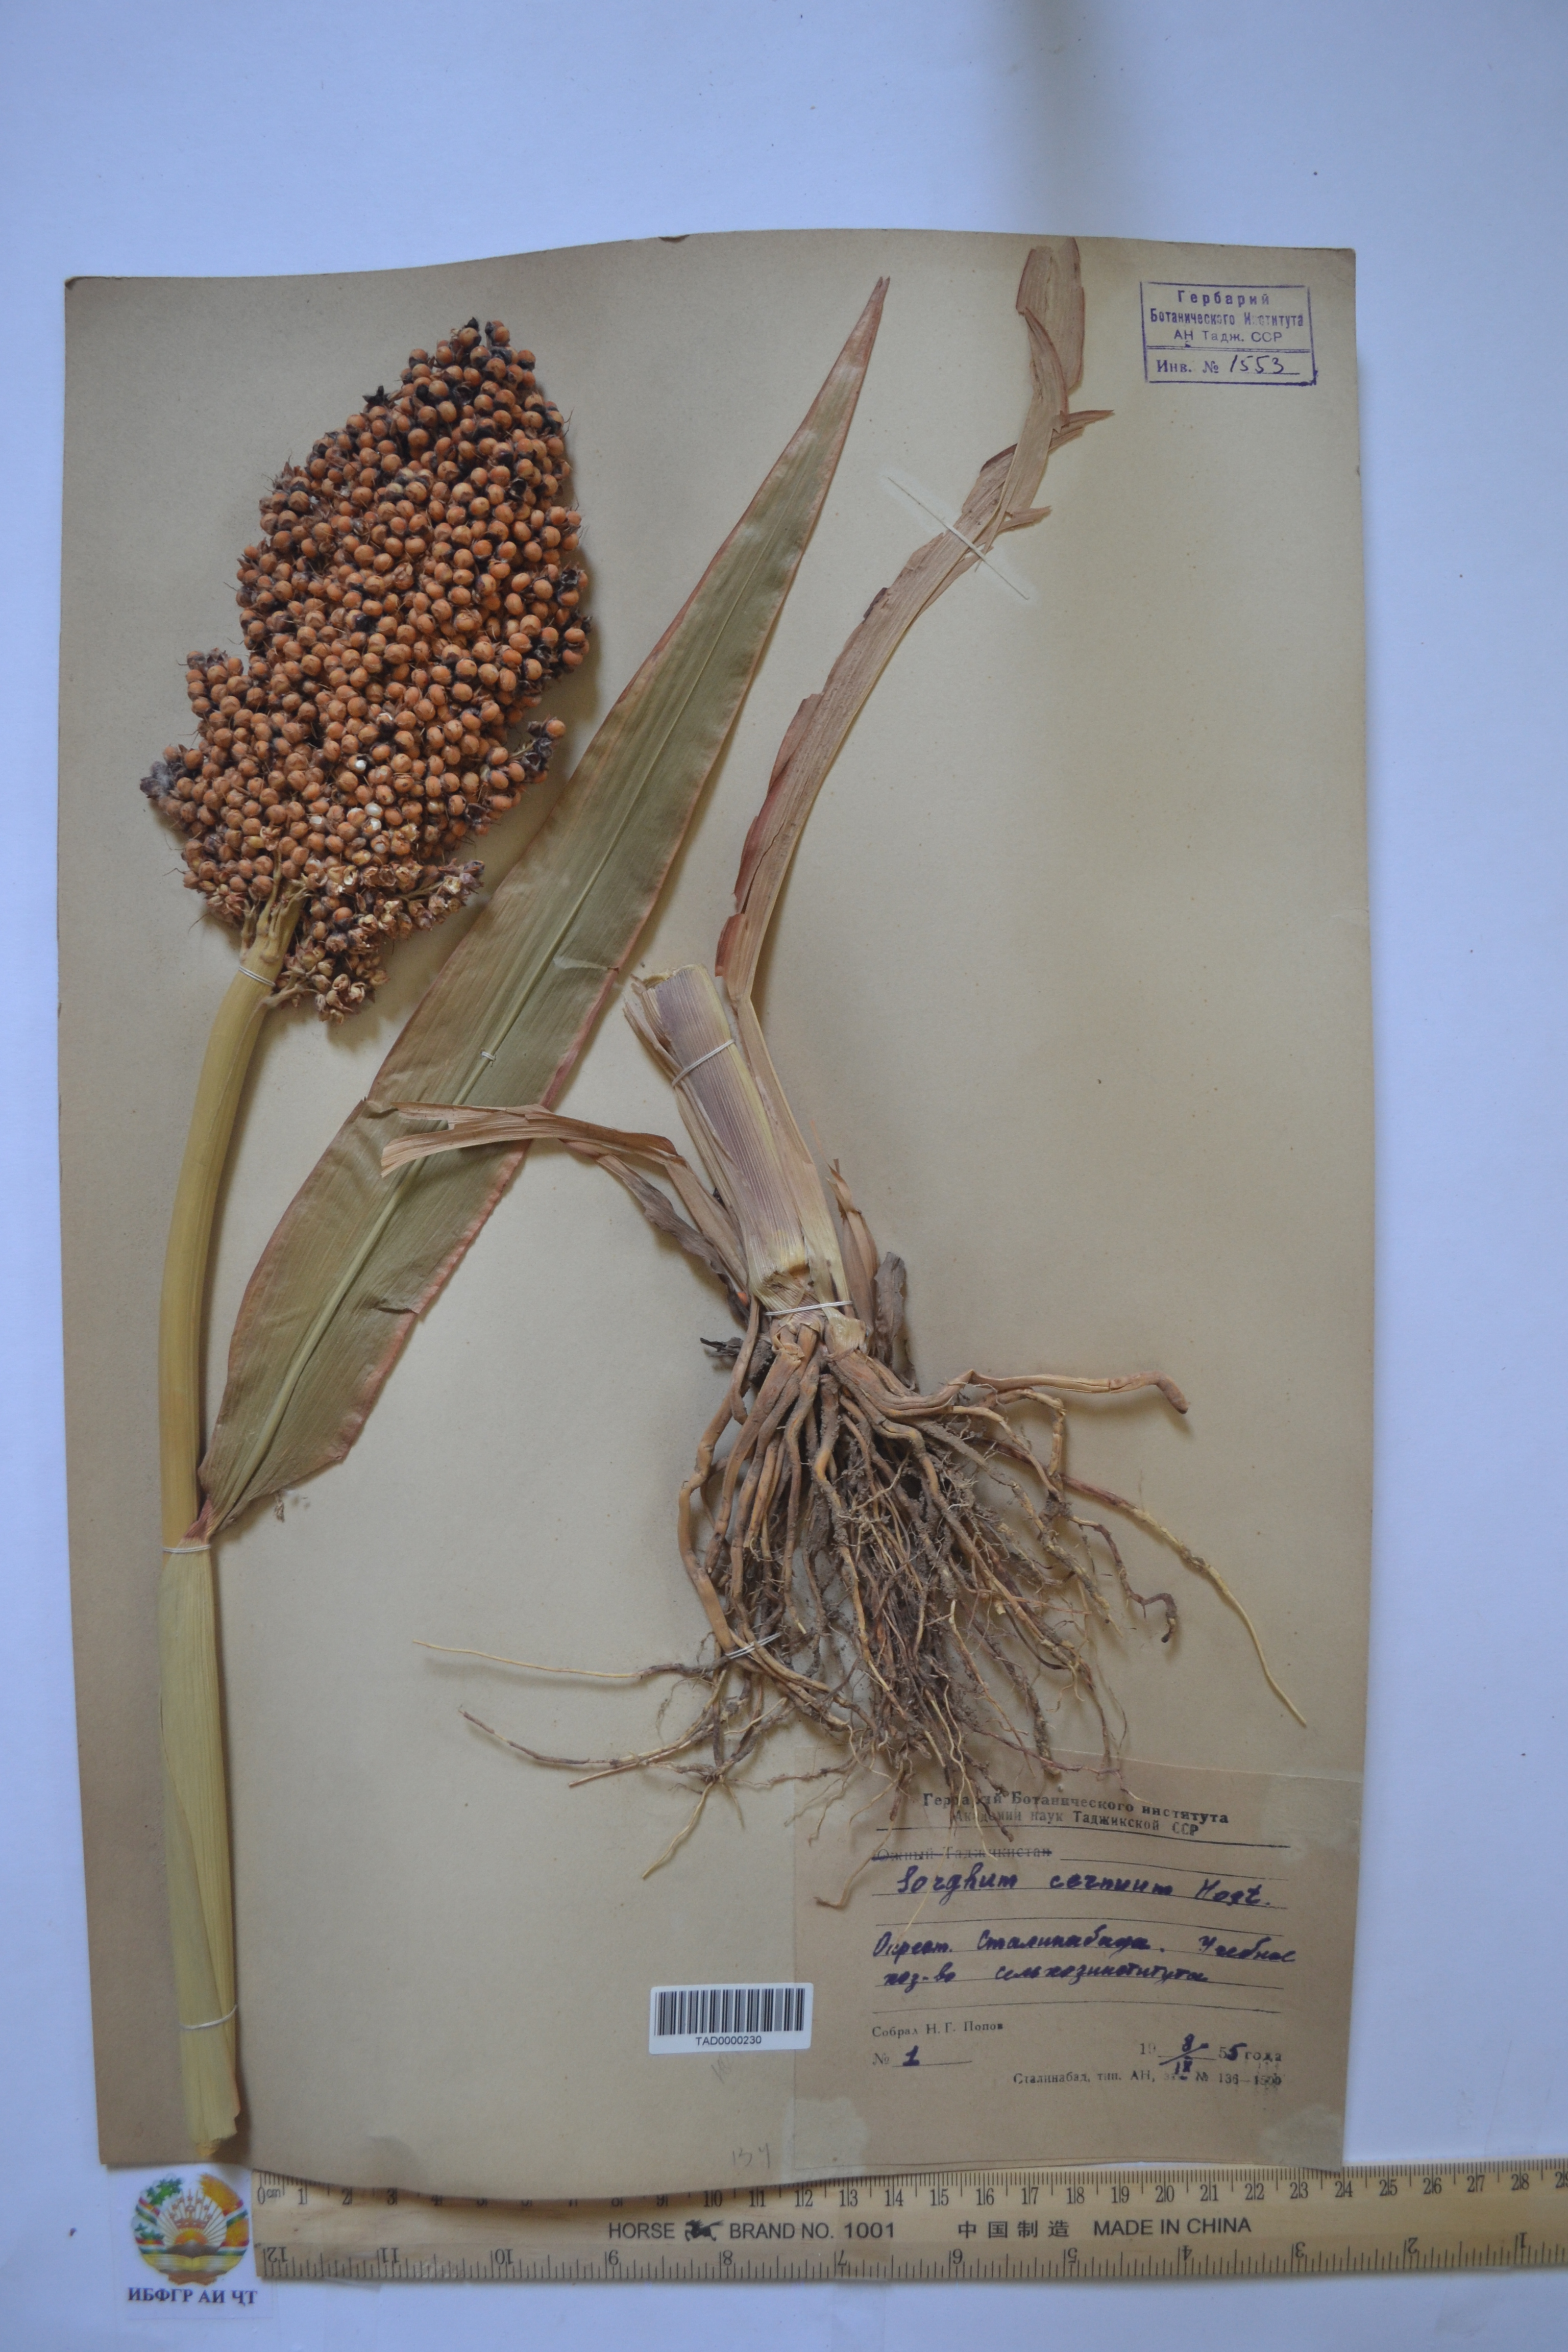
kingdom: Plantae
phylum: Tracheophyta
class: Liliopsida
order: Poales
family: Poaceae
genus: Sorghum
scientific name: Sorghum bicolor
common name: Sorghum
